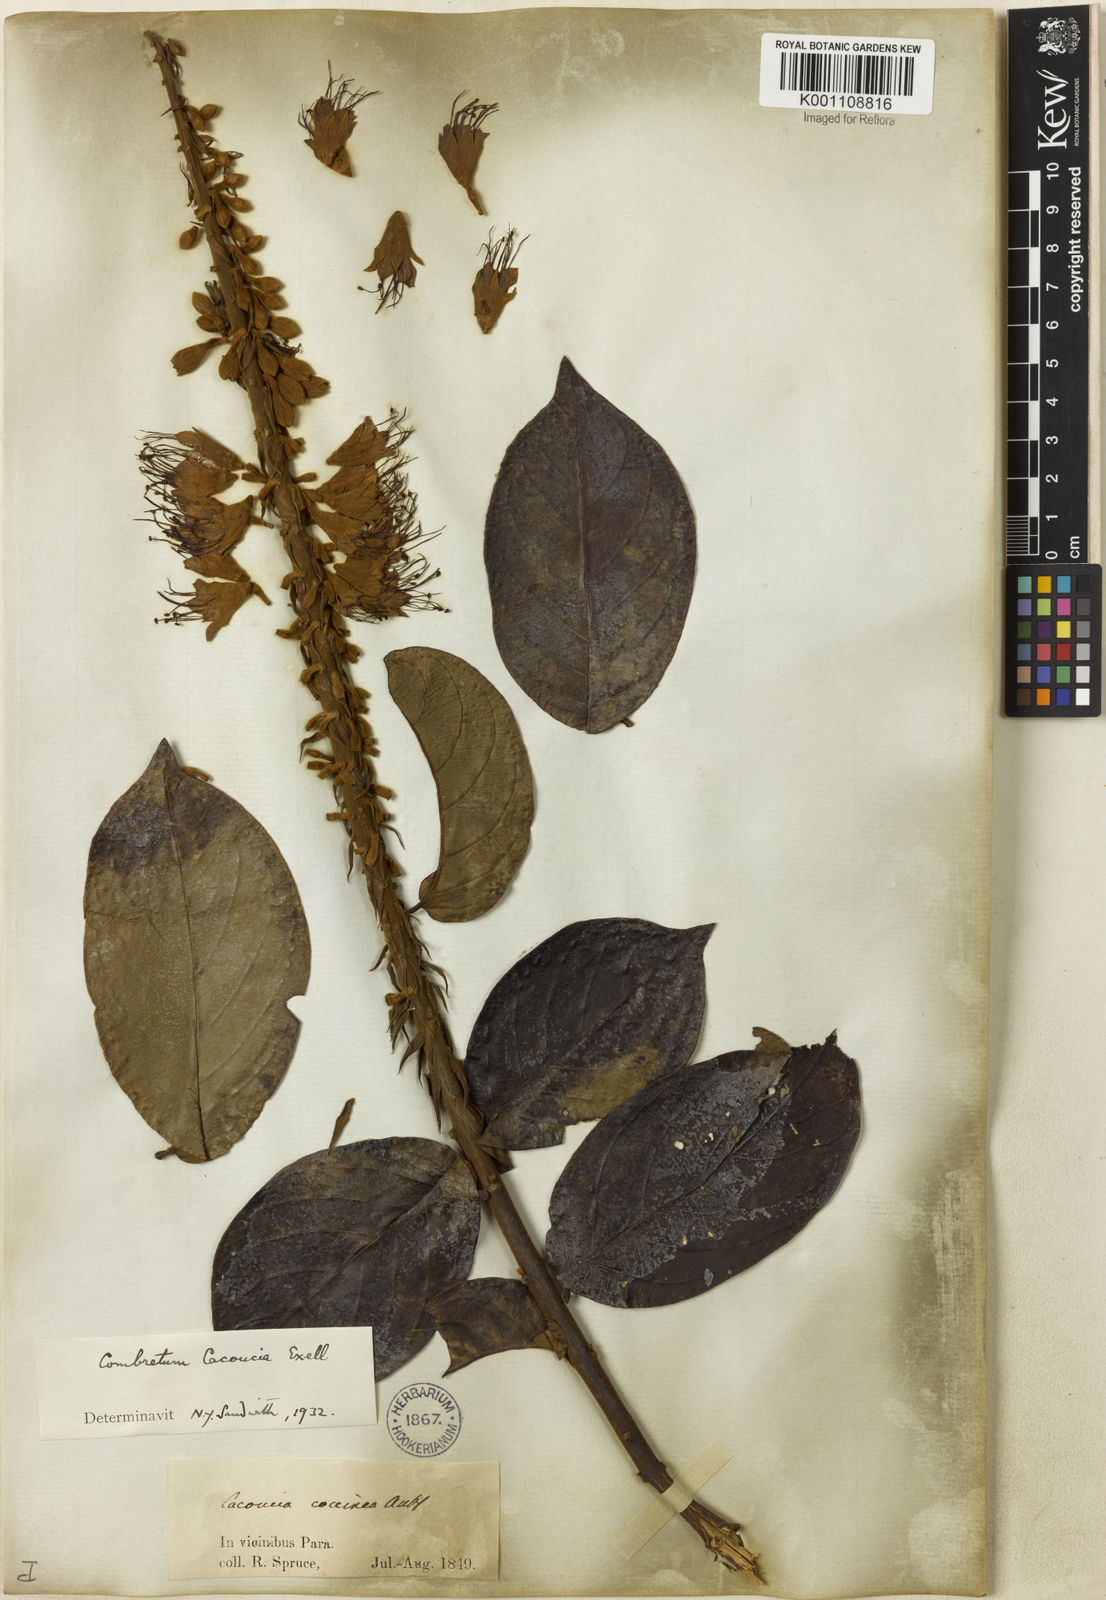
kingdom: Plantae
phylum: Tracheophyta
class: Magnoliopsida
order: Myrtales
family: Combretaceae
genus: Combretum
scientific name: Combretum
